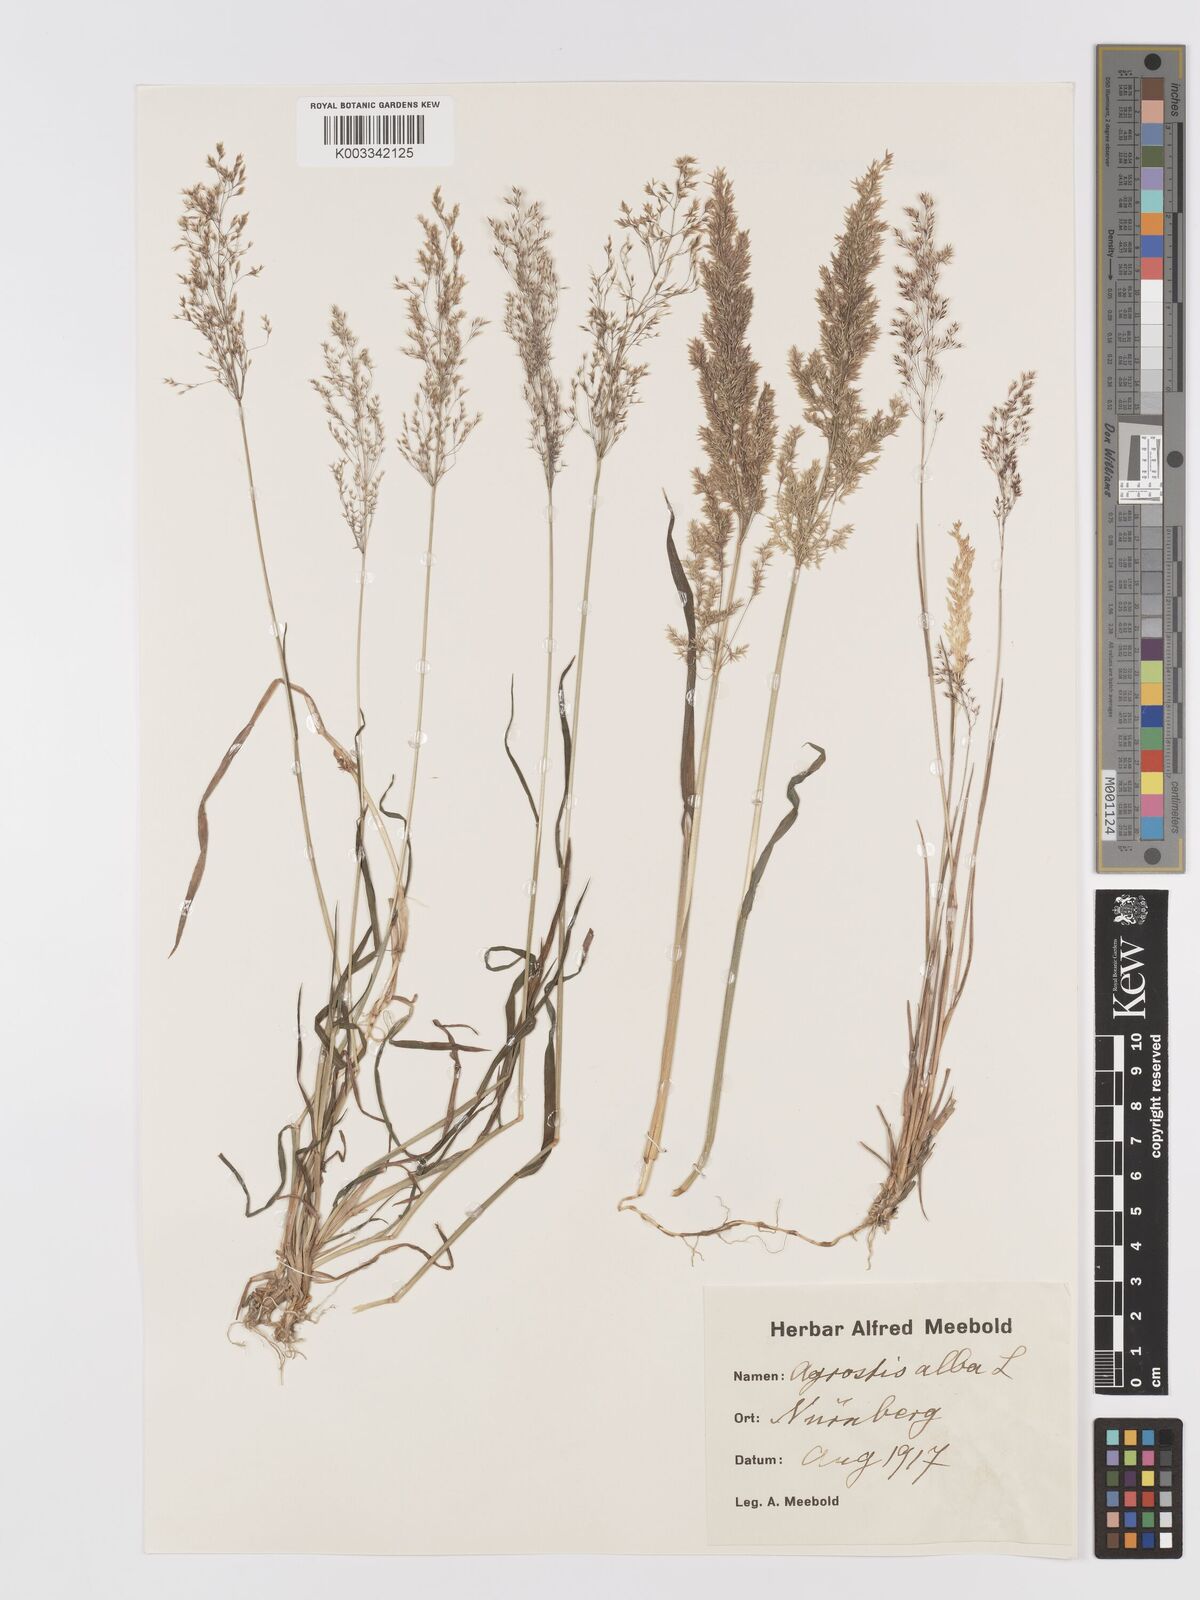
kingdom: Plantae
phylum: Tracheophyta
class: Liliopsida
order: Poales
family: Poaceae
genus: Agrostis
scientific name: Agrostis stolonifera
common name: Creeping bentgrass
